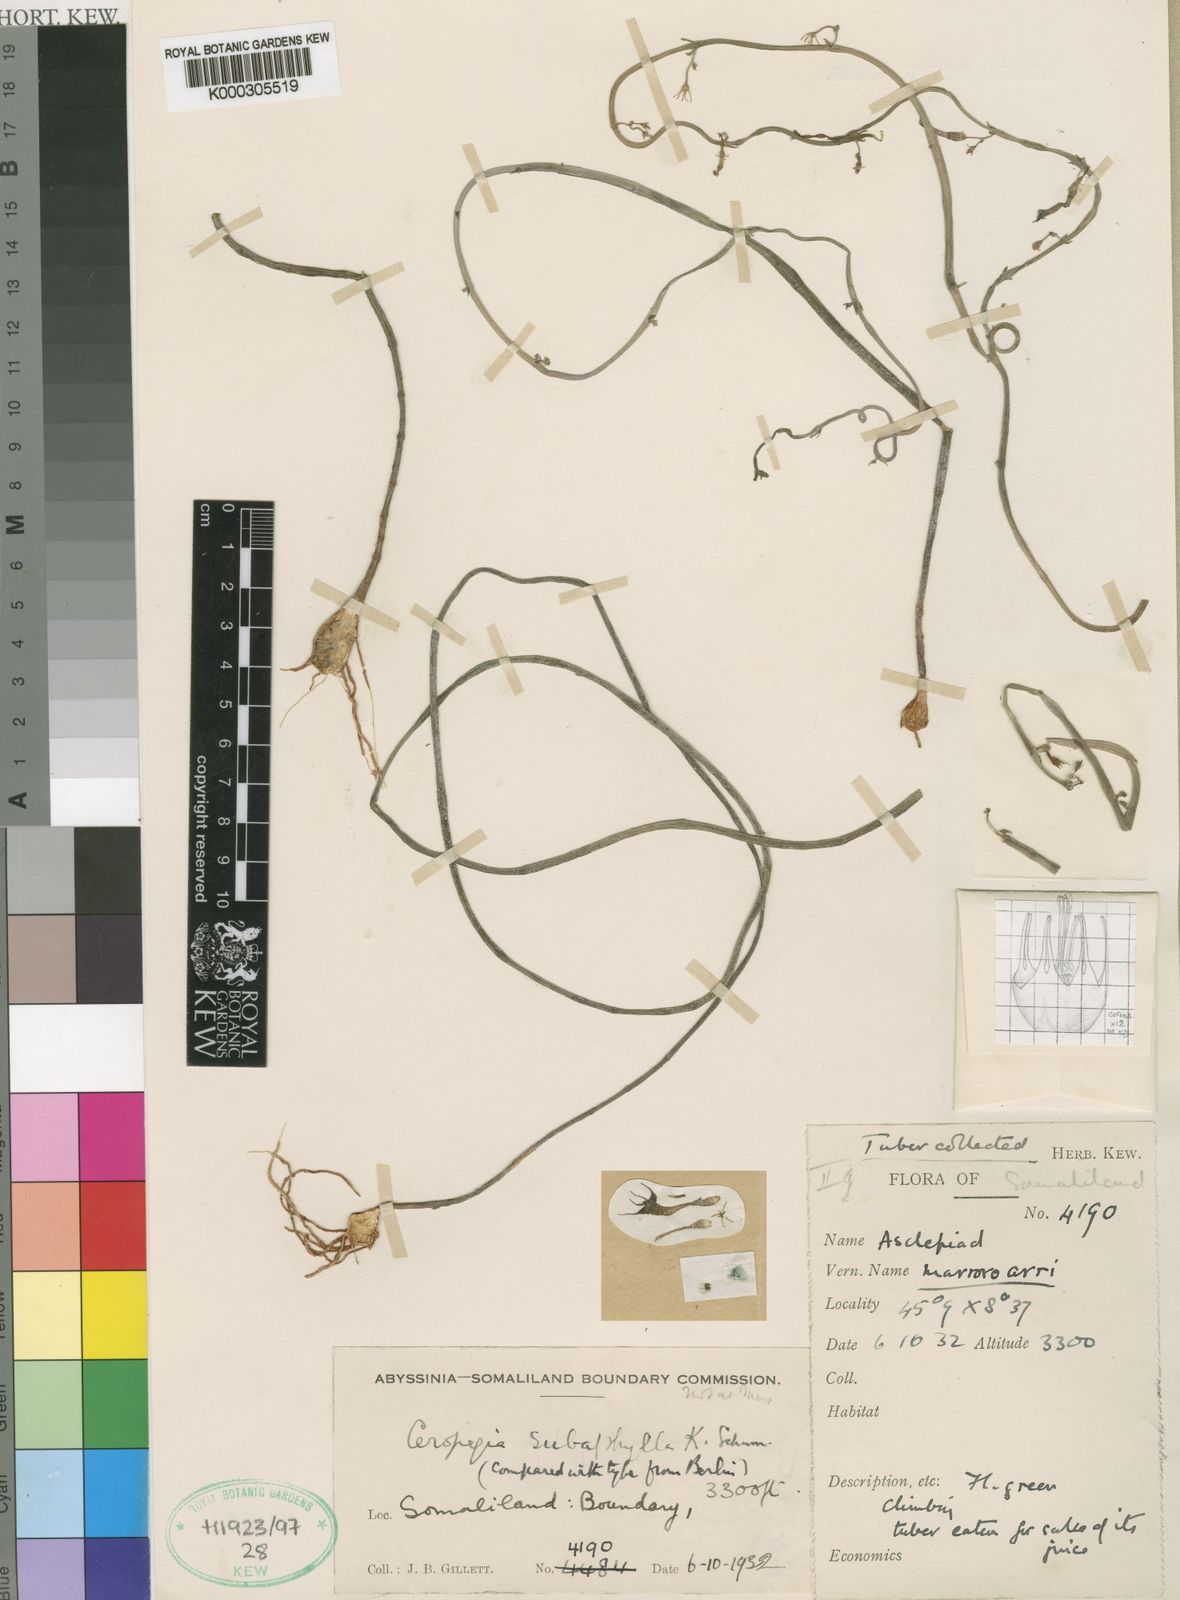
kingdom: Plantae
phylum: Tracheophyta
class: Magnoliopsida
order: Gentianales
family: Apocynaceae
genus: Ceropegia
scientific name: Ceropegia subaphylla
